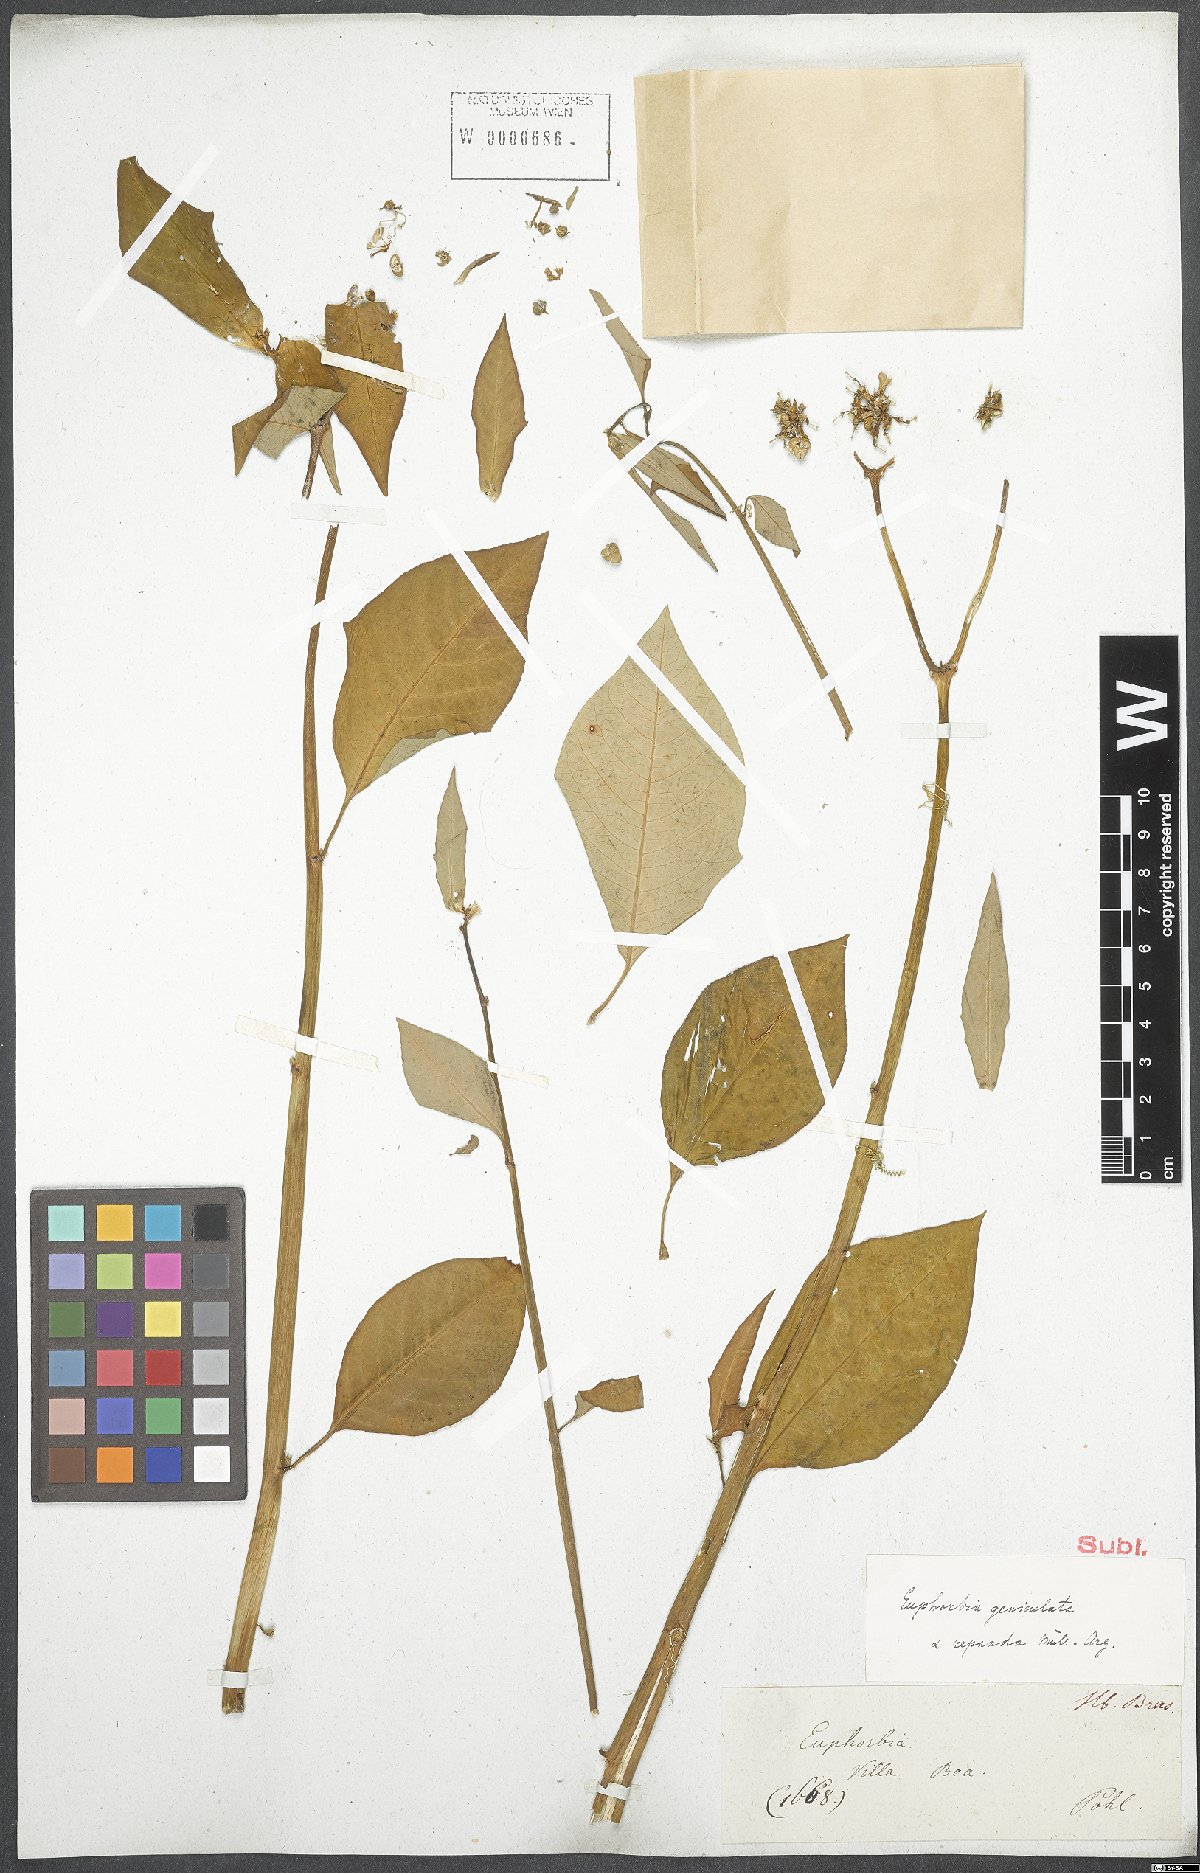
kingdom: Plantae
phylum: Tracheophyta
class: Magnoliopsida
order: Malpighiales
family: Euphorbiaceae
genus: Euphorbia
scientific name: Euphorbia heterophylla
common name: Mexican fireplant
